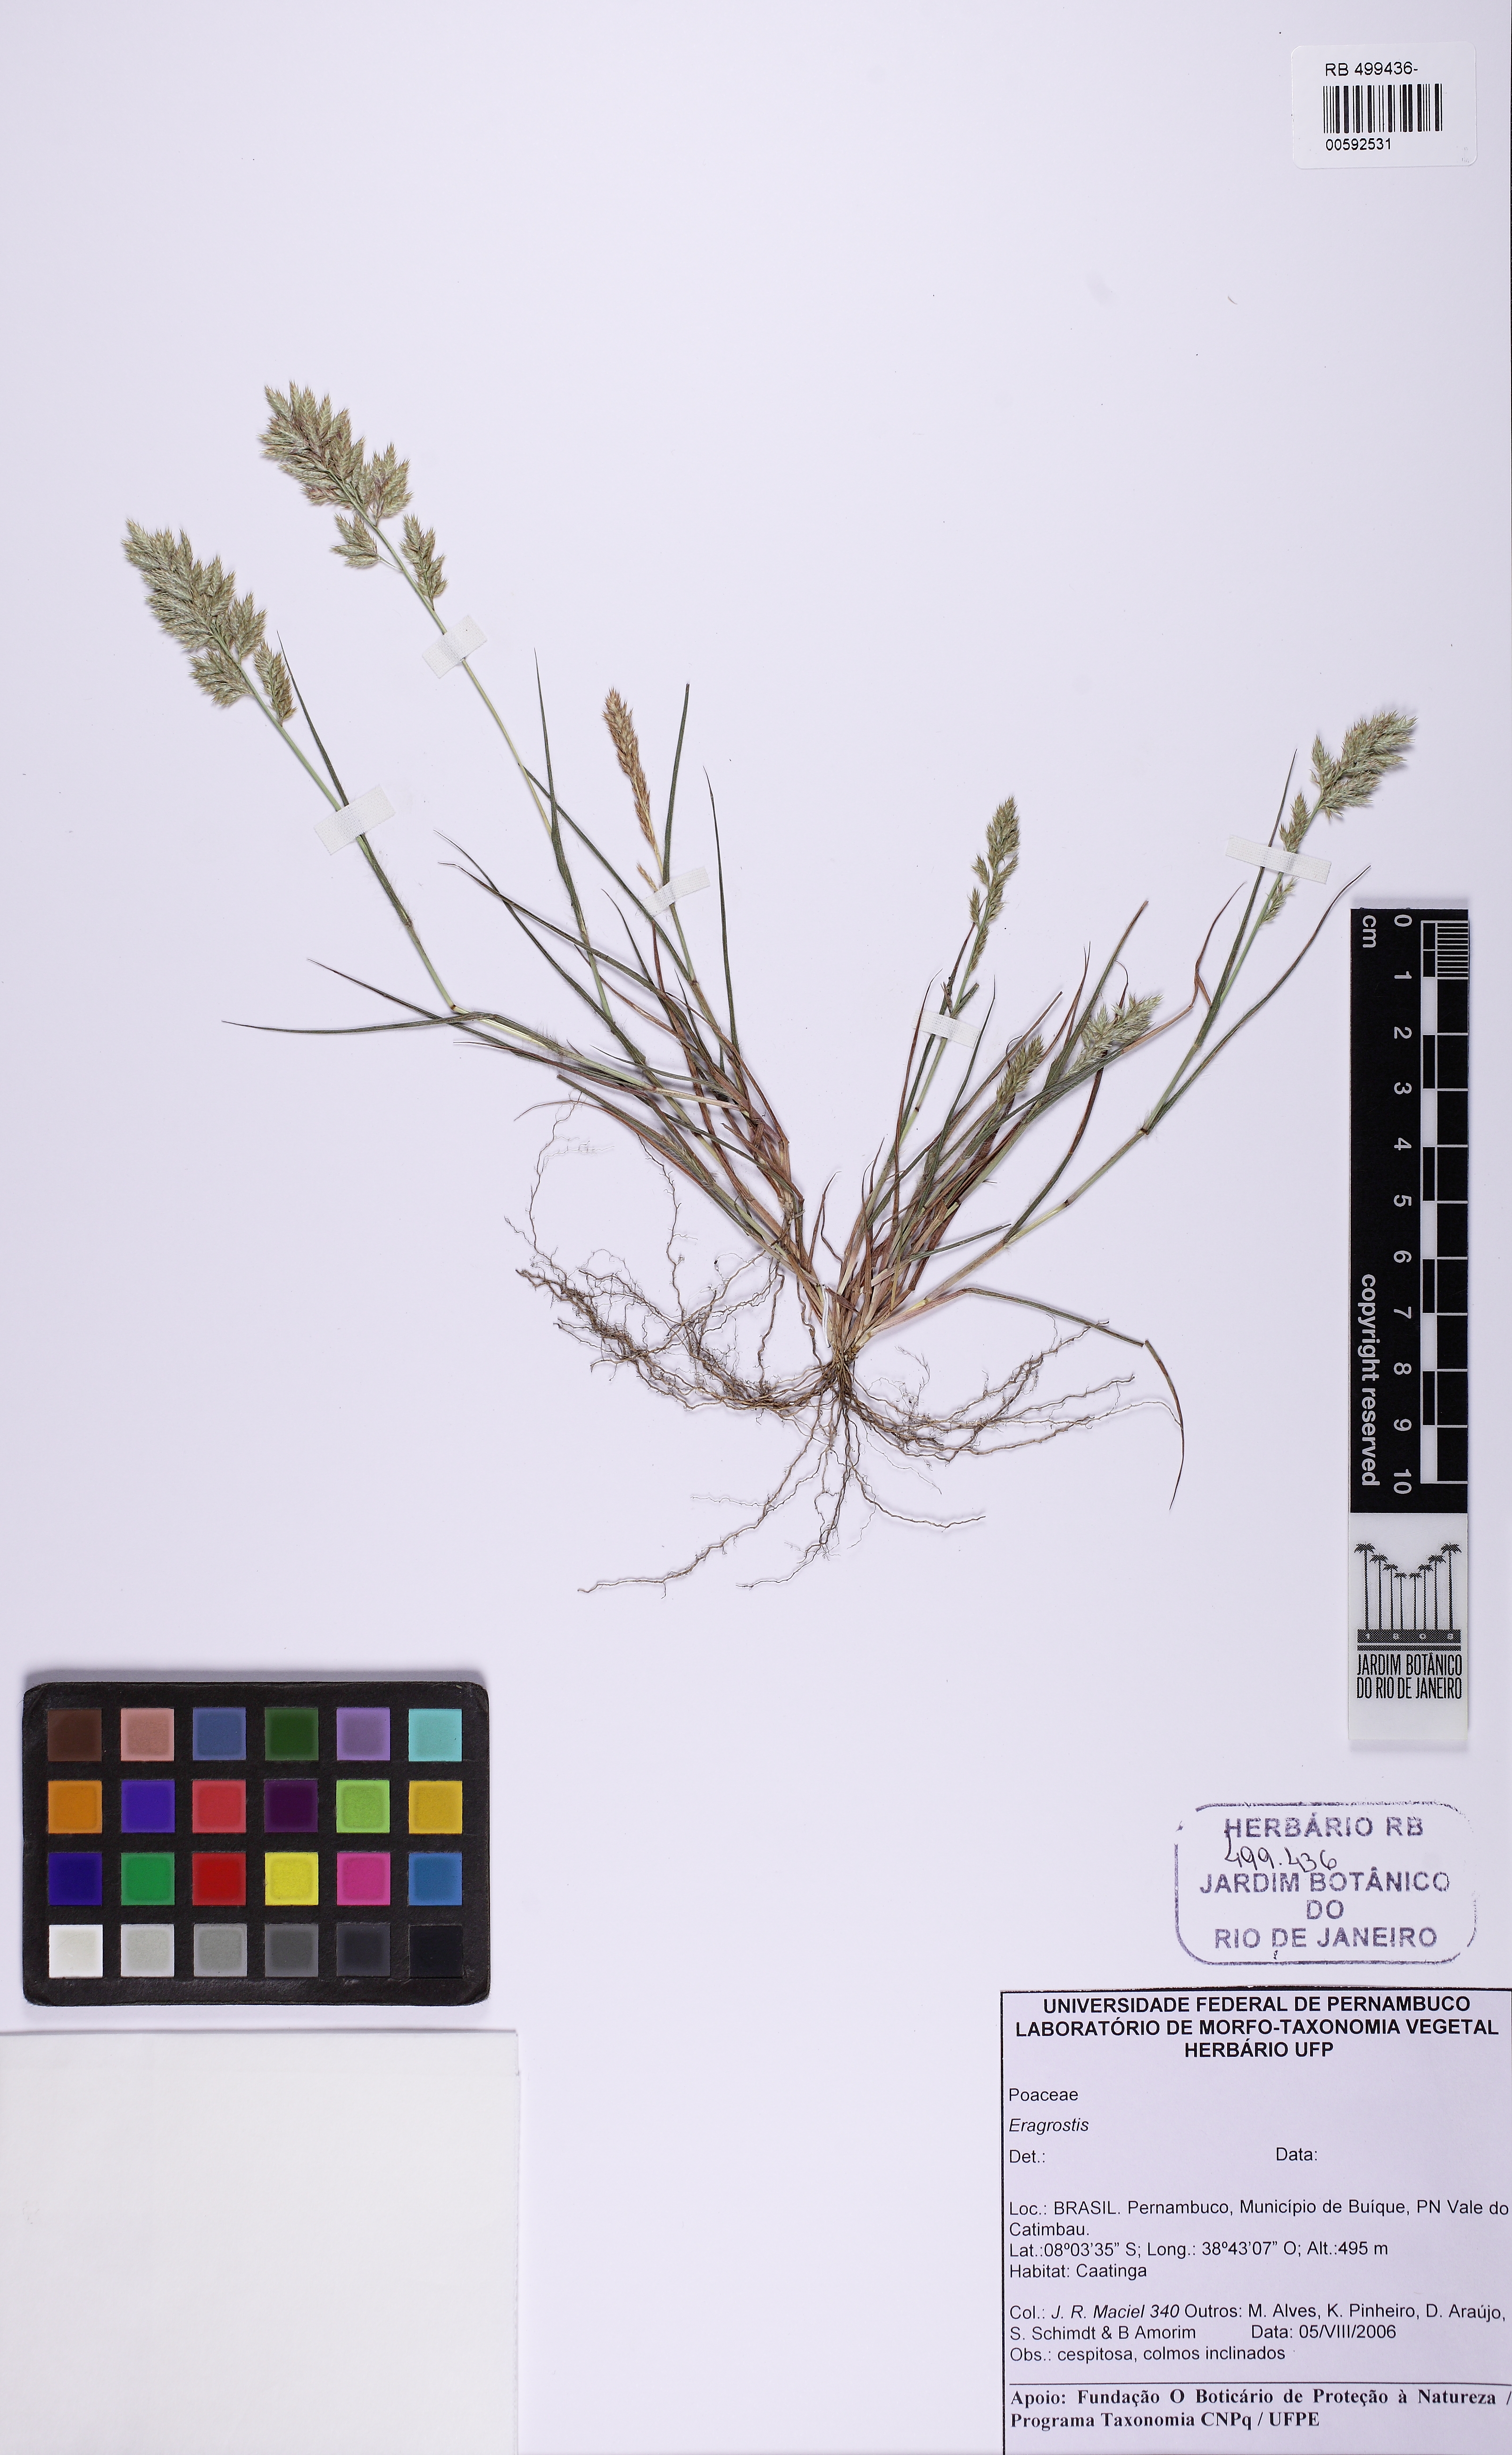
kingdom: Plantae
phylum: Tracheophyta
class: Liliopsida
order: Poales
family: Poaceae
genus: Eragrostis
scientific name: Eragrostis
